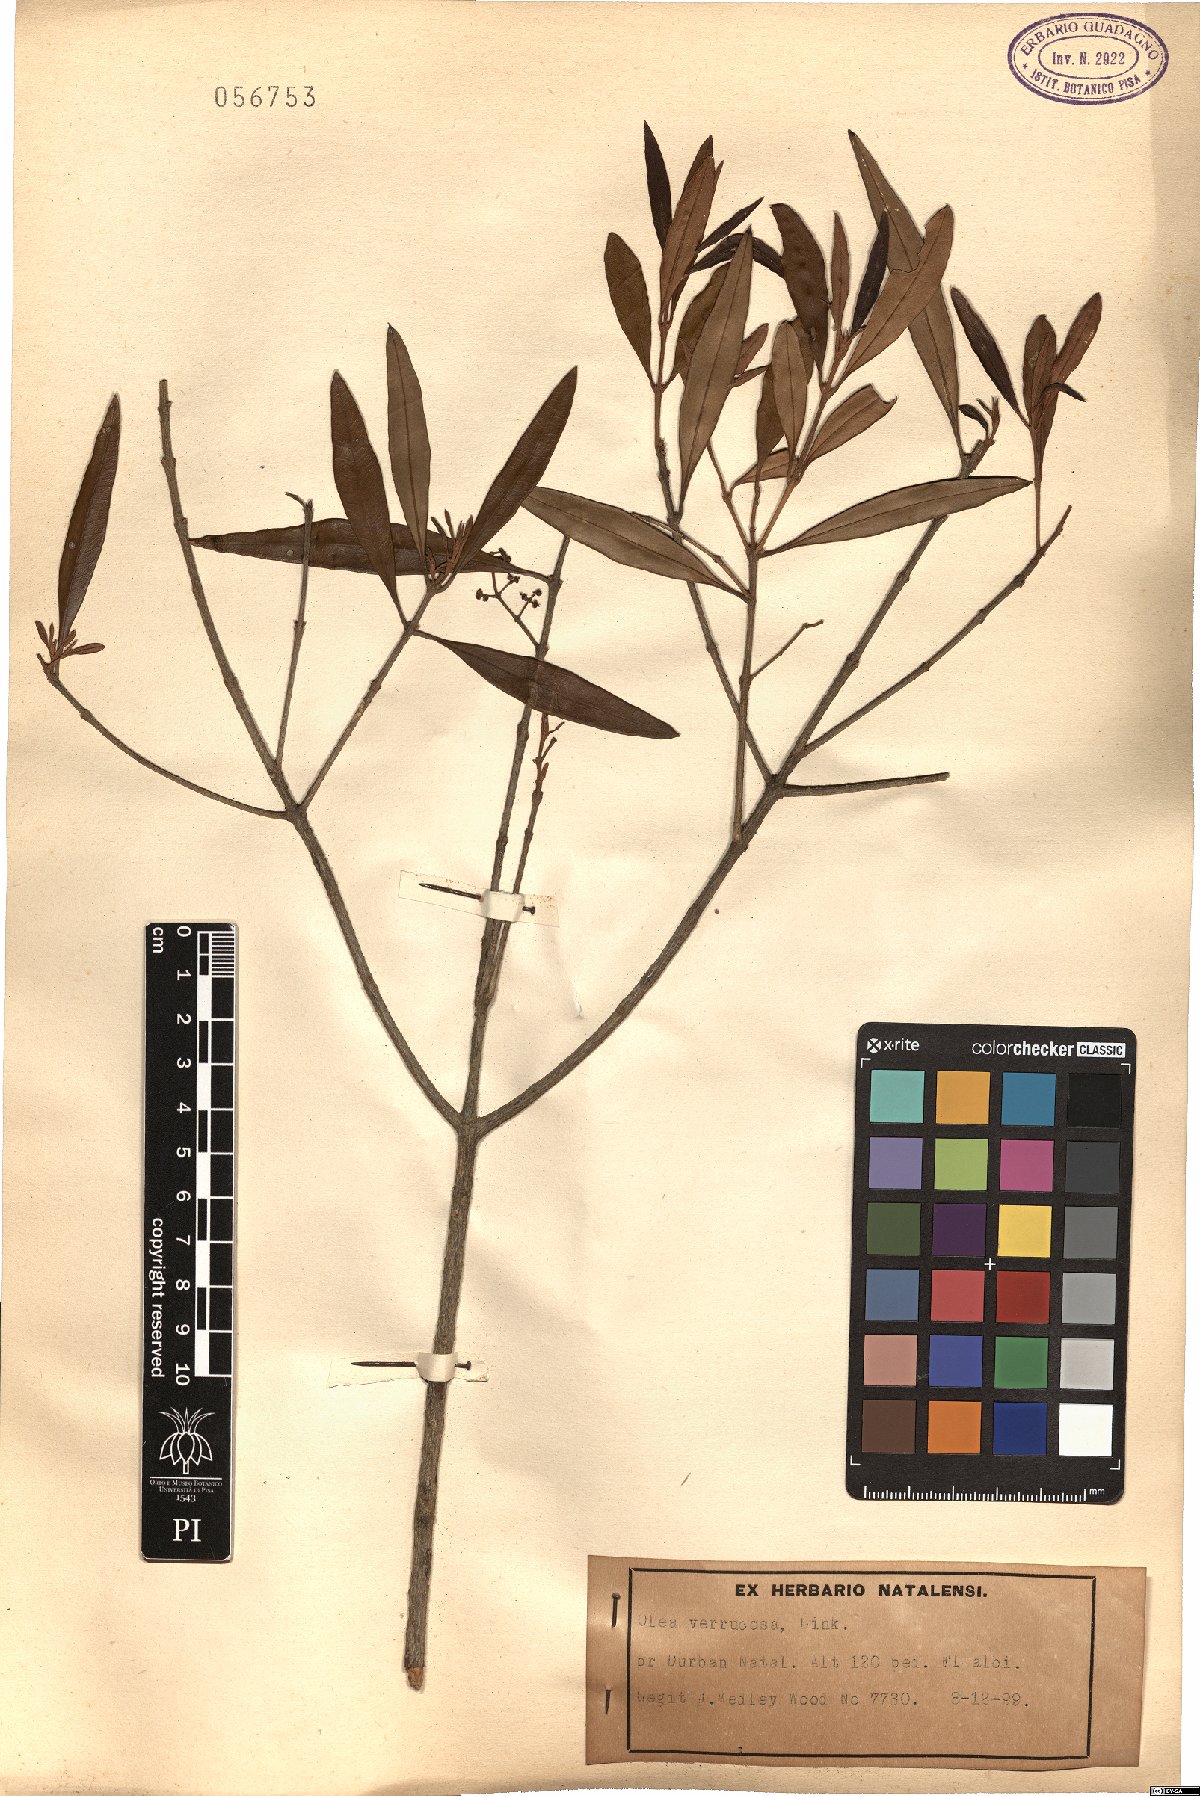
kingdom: Plantae
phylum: Tracheophyta
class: Magnoliopsida
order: Lamiales
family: Oleaceae
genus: Olea
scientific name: Olea europaea
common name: Olive
